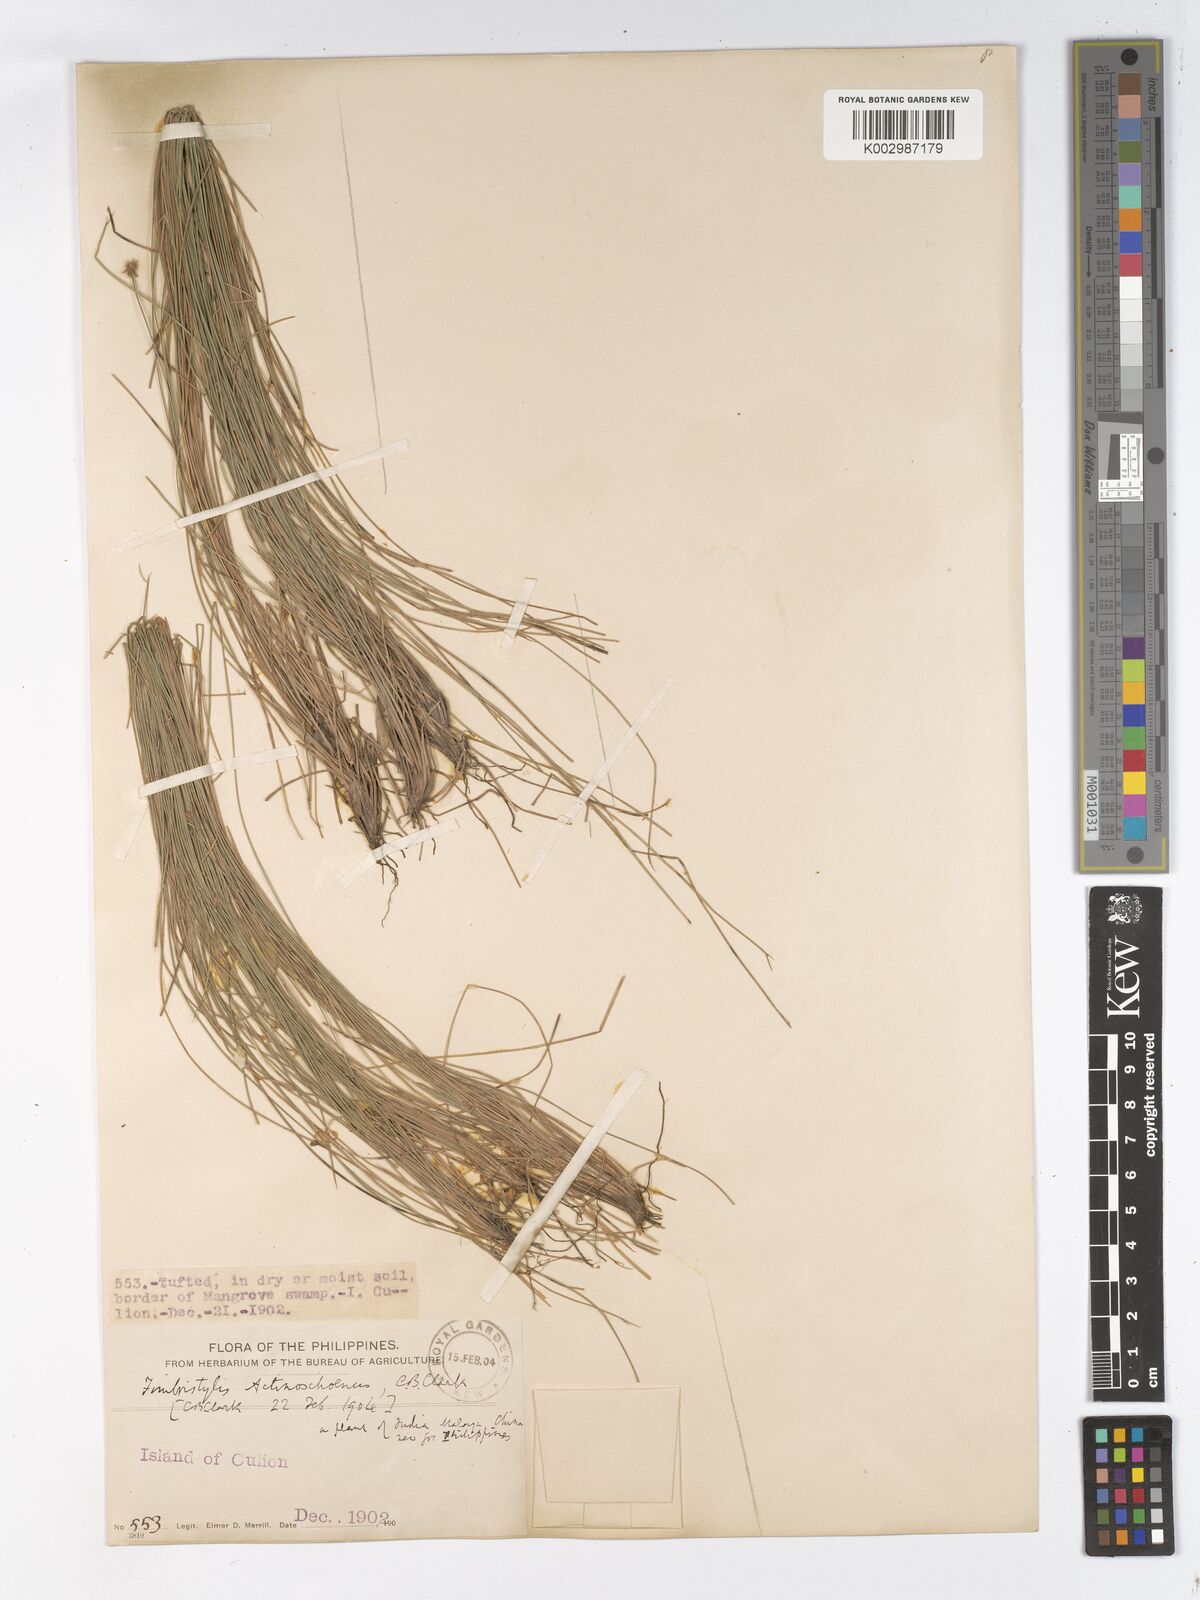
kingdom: Plantae
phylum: Tracheophyta
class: Liliopsida
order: Poales
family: Cyperaceae
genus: Actinoschoenus
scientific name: Actinoschoenus
